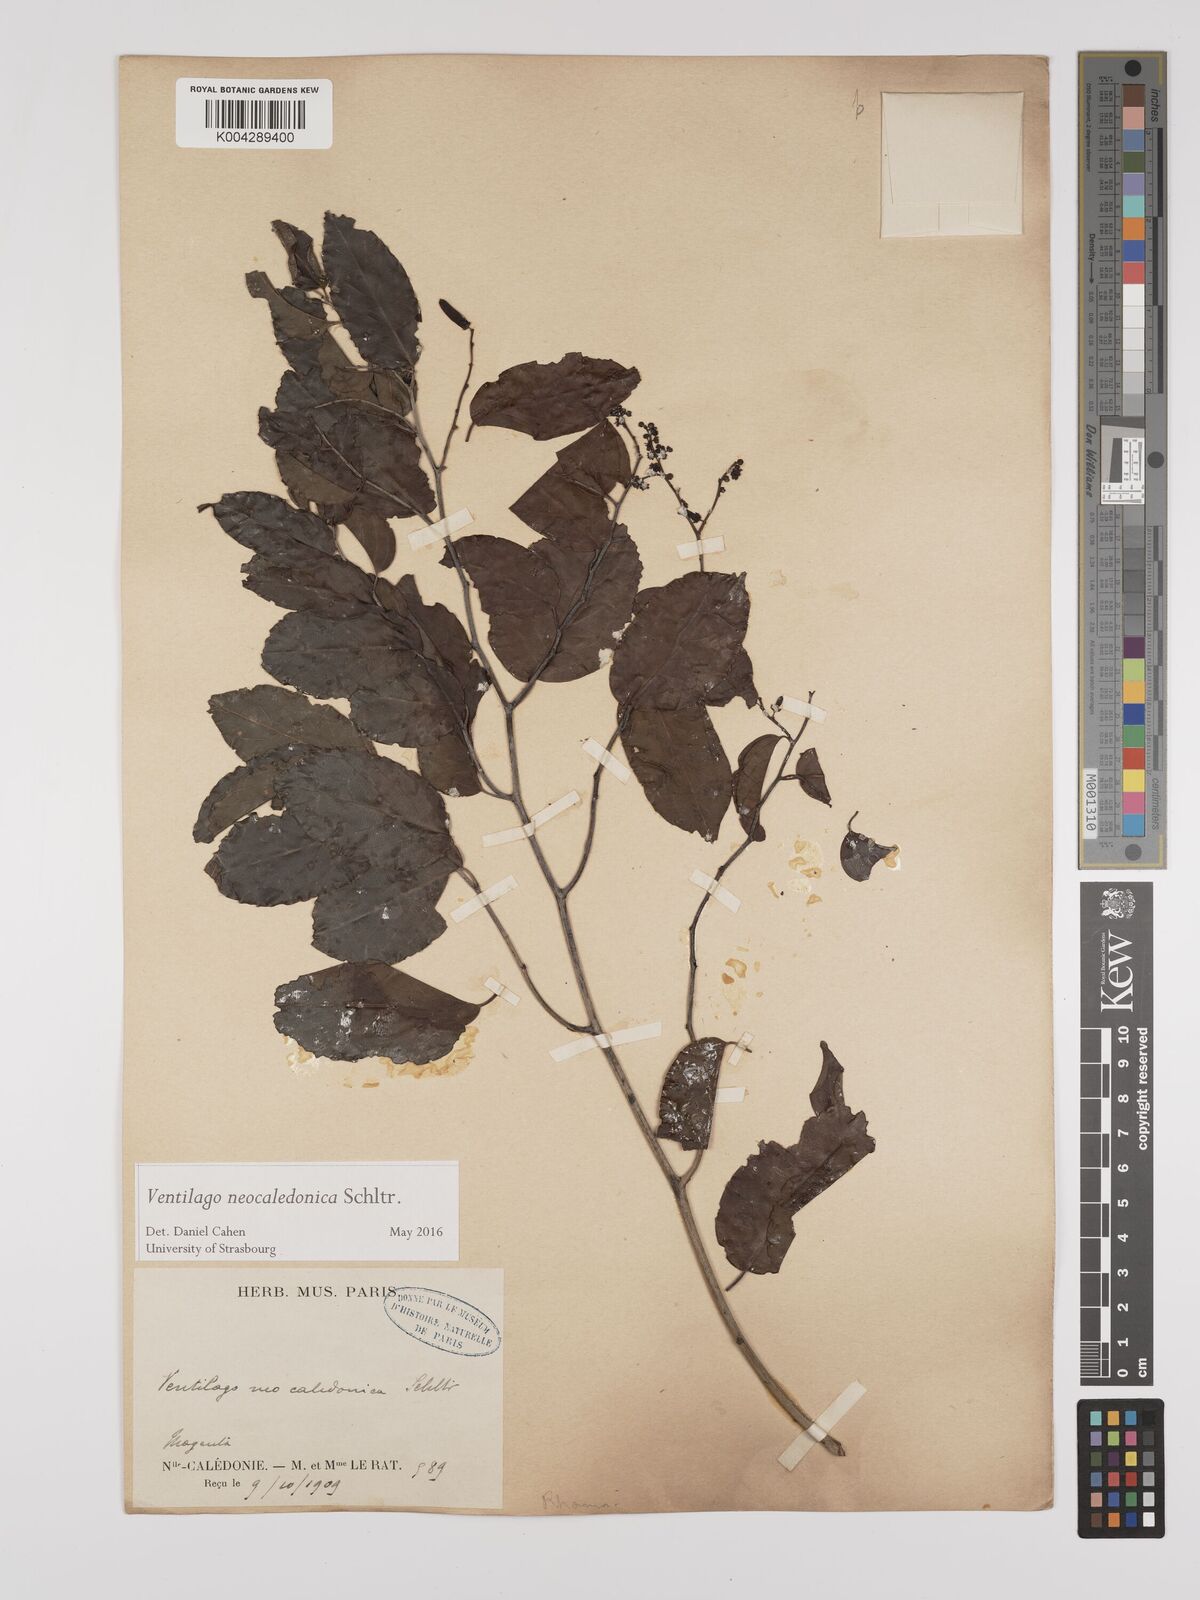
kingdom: Plantae
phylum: Tracheophyta
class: Magnoliopsida
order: Rosales
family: Rhamnaceae
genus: Ventilago
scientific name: Ventilago neocaledonica
